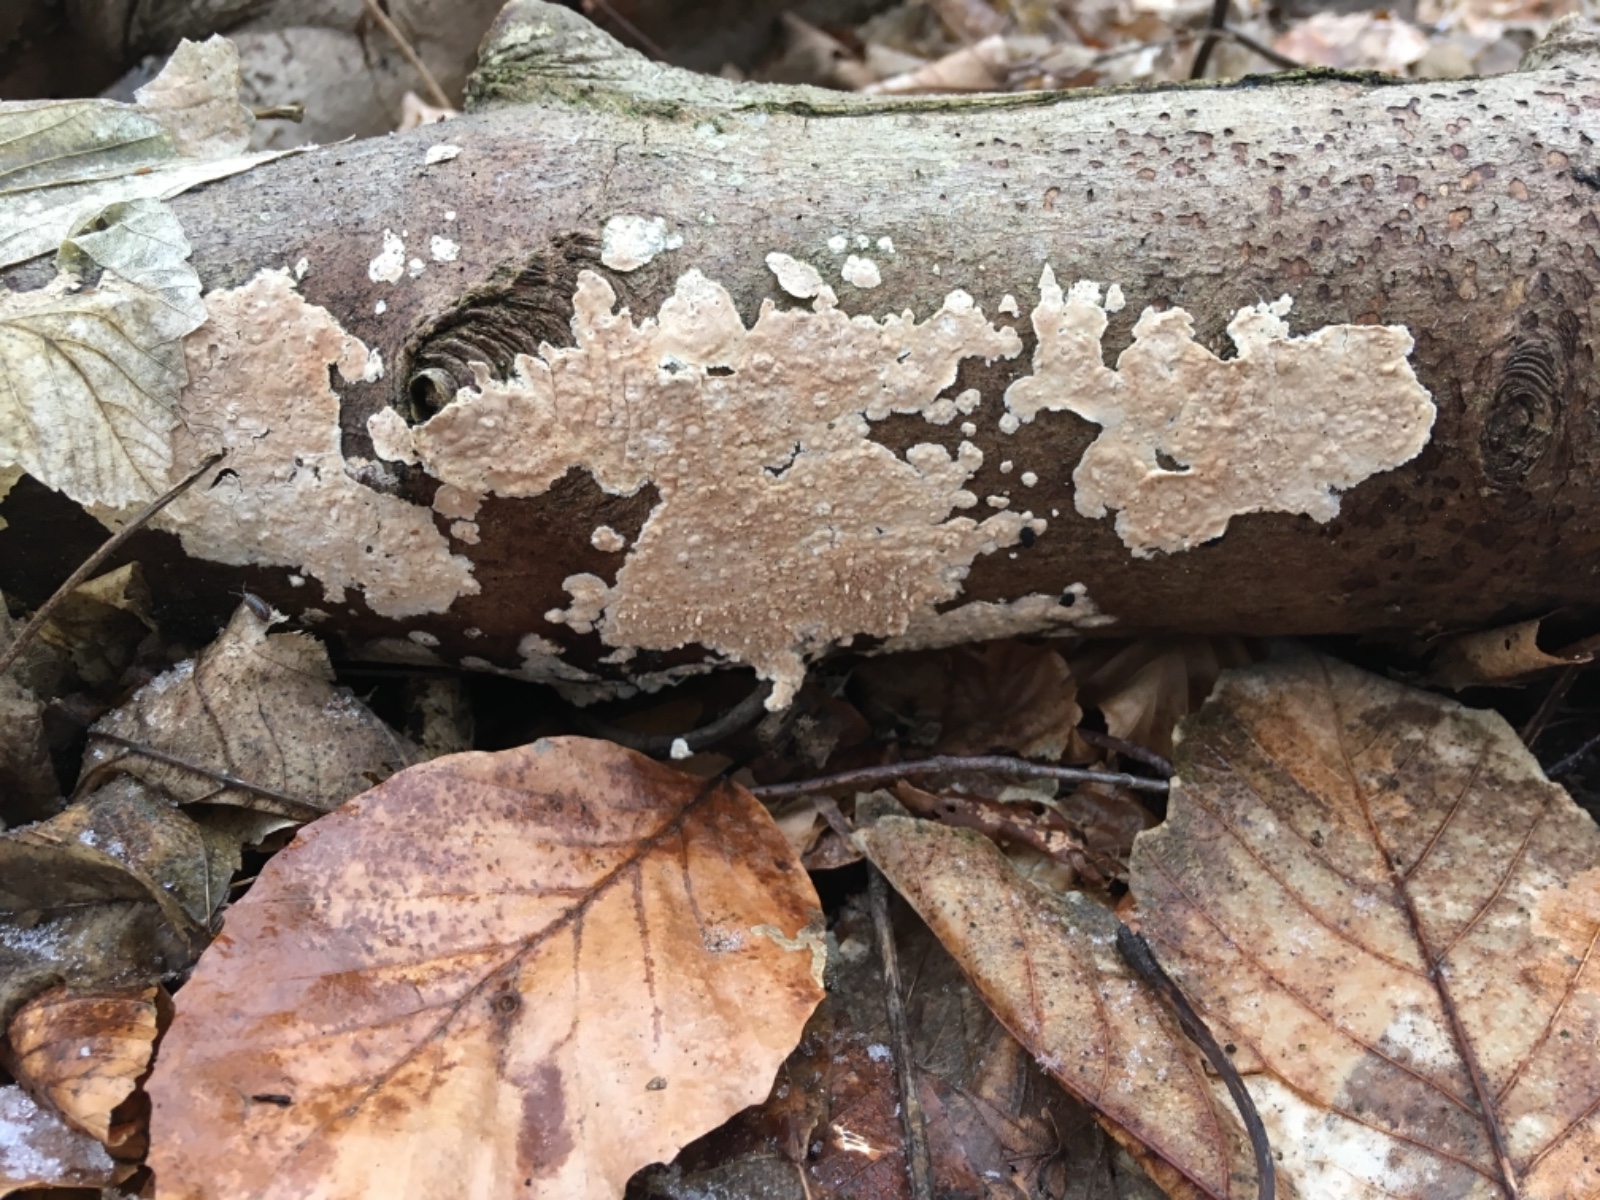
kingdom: Fungi
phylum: Basidiomycota
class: Agaricomycetes
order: Agaricales
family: Physalacriaceae
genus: Cylindrobasidium
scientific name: Cylindrobasidium evolvens
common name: sprækkehinde
